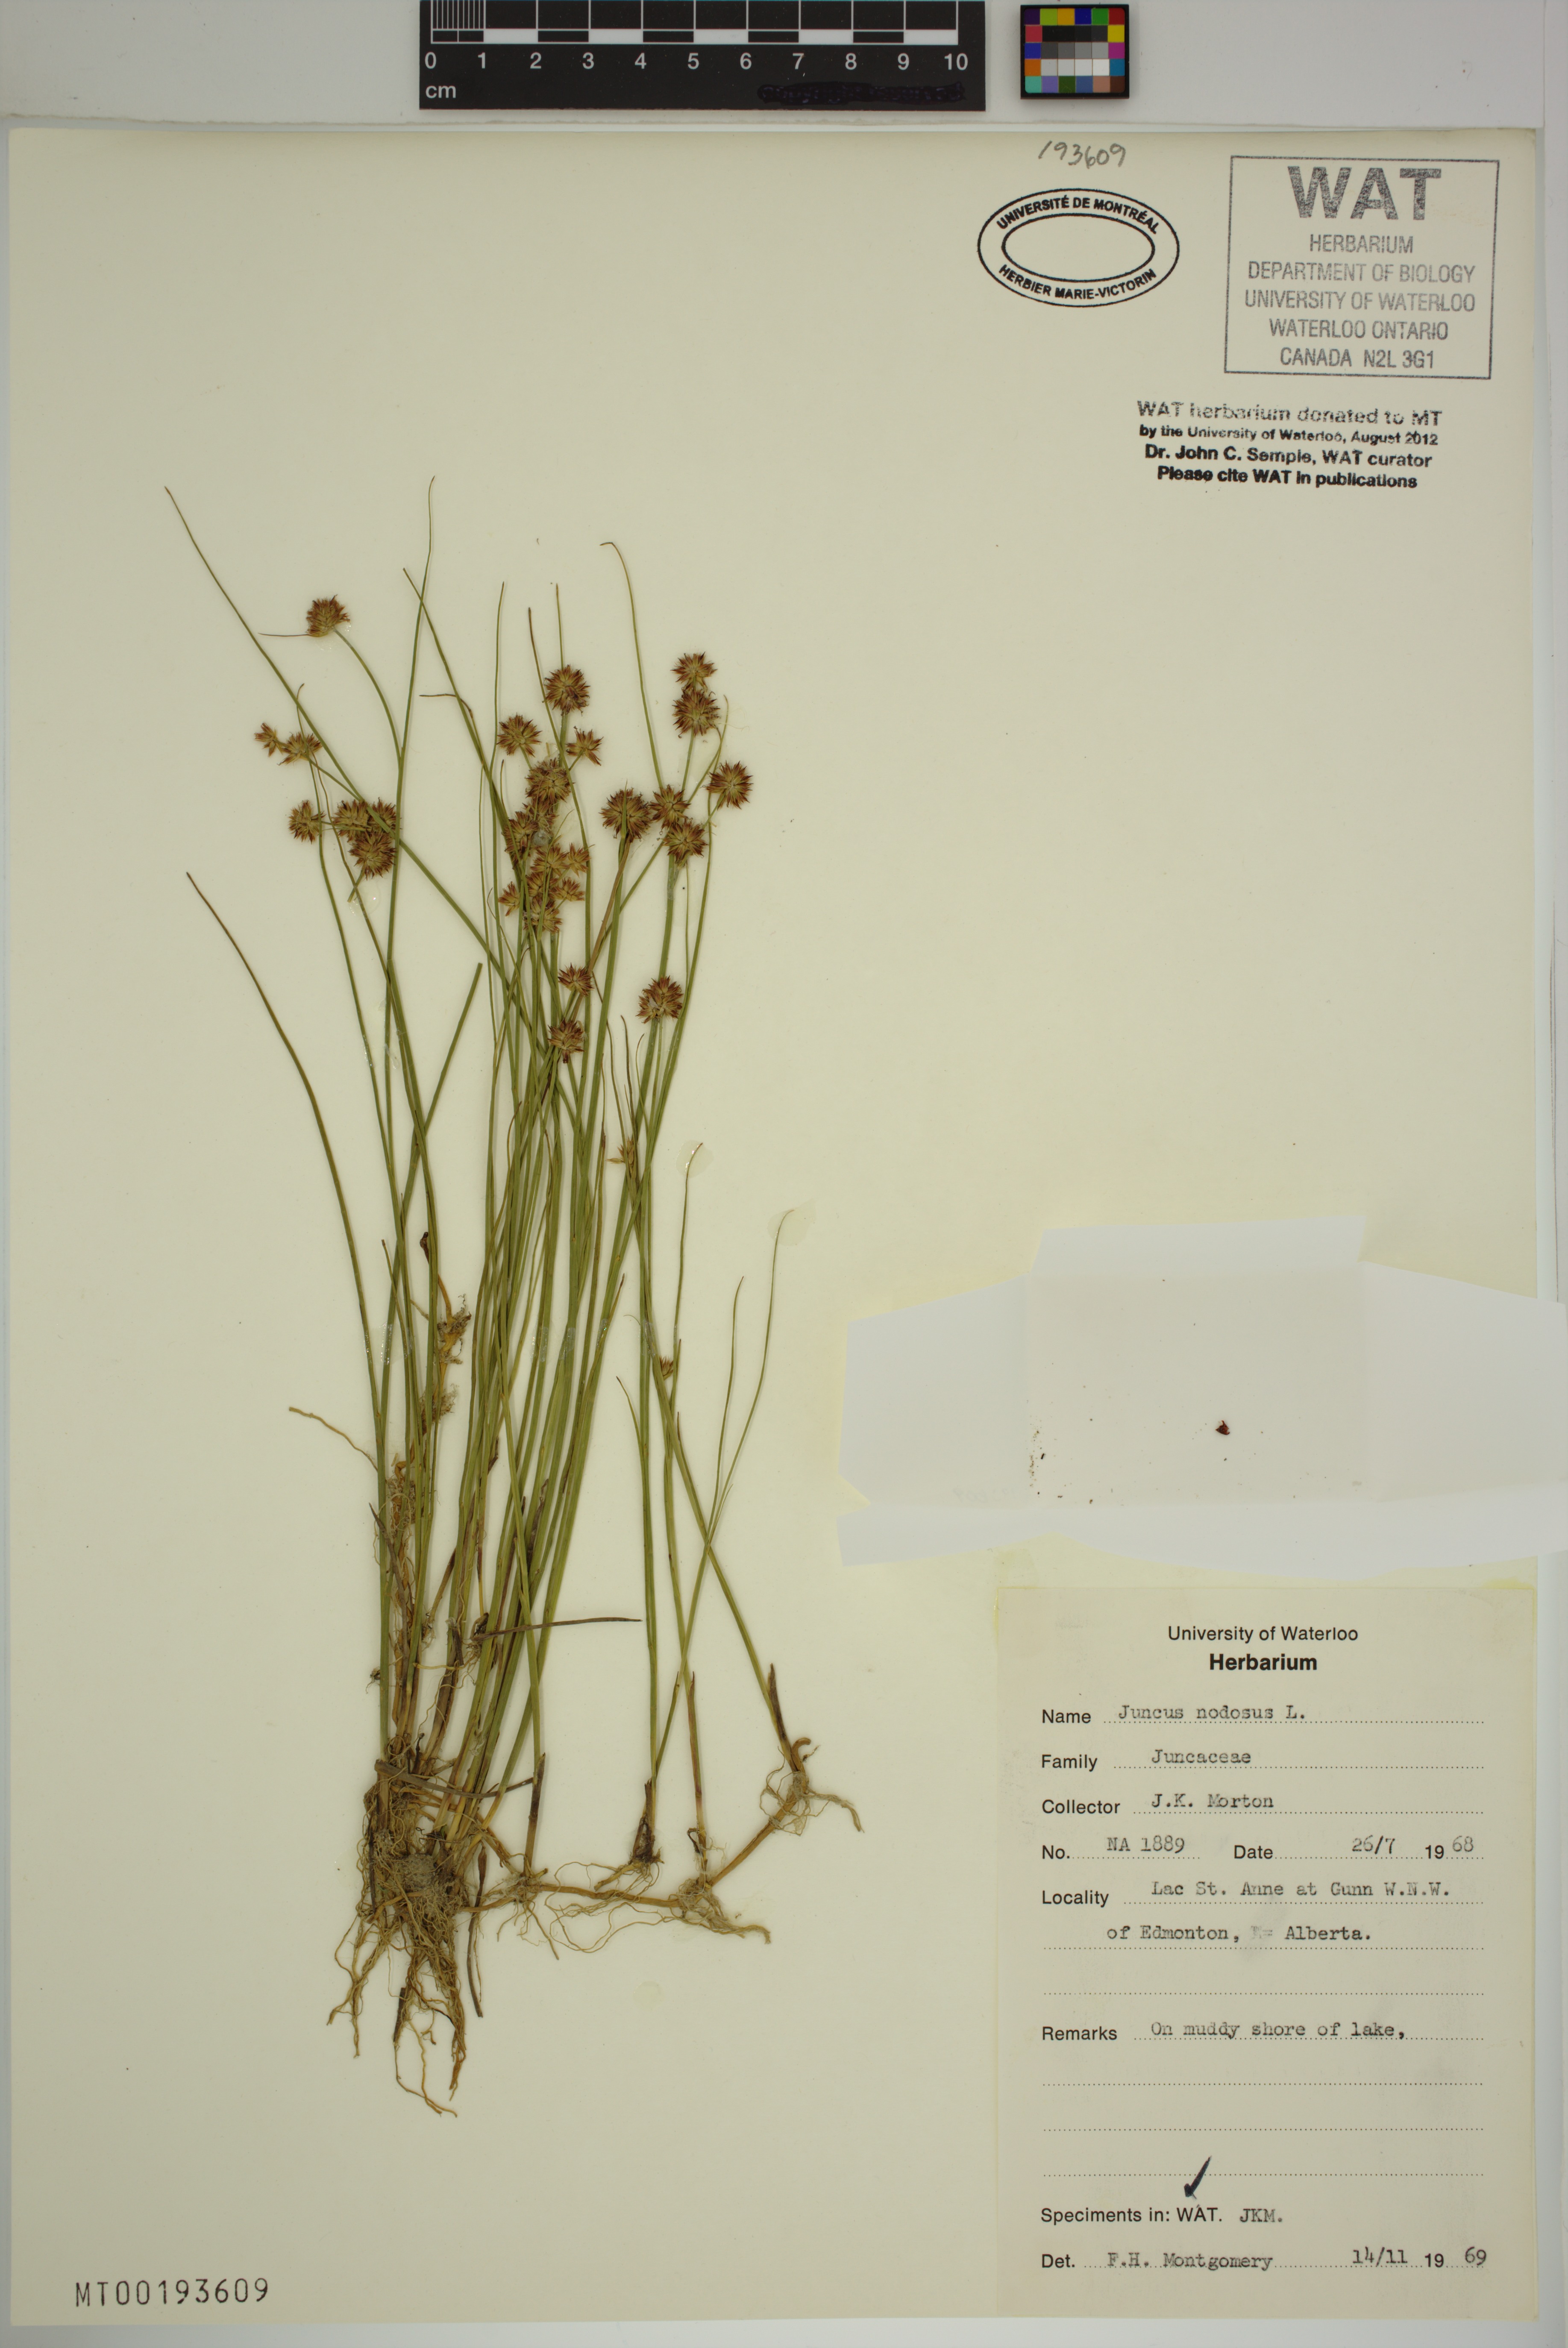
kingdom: Plantae
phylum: Tracheophyta
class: Liliopsida
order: Poales
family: Juncaceae
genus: Juncus
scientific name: Juncus nodosus
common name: Knotted rush
